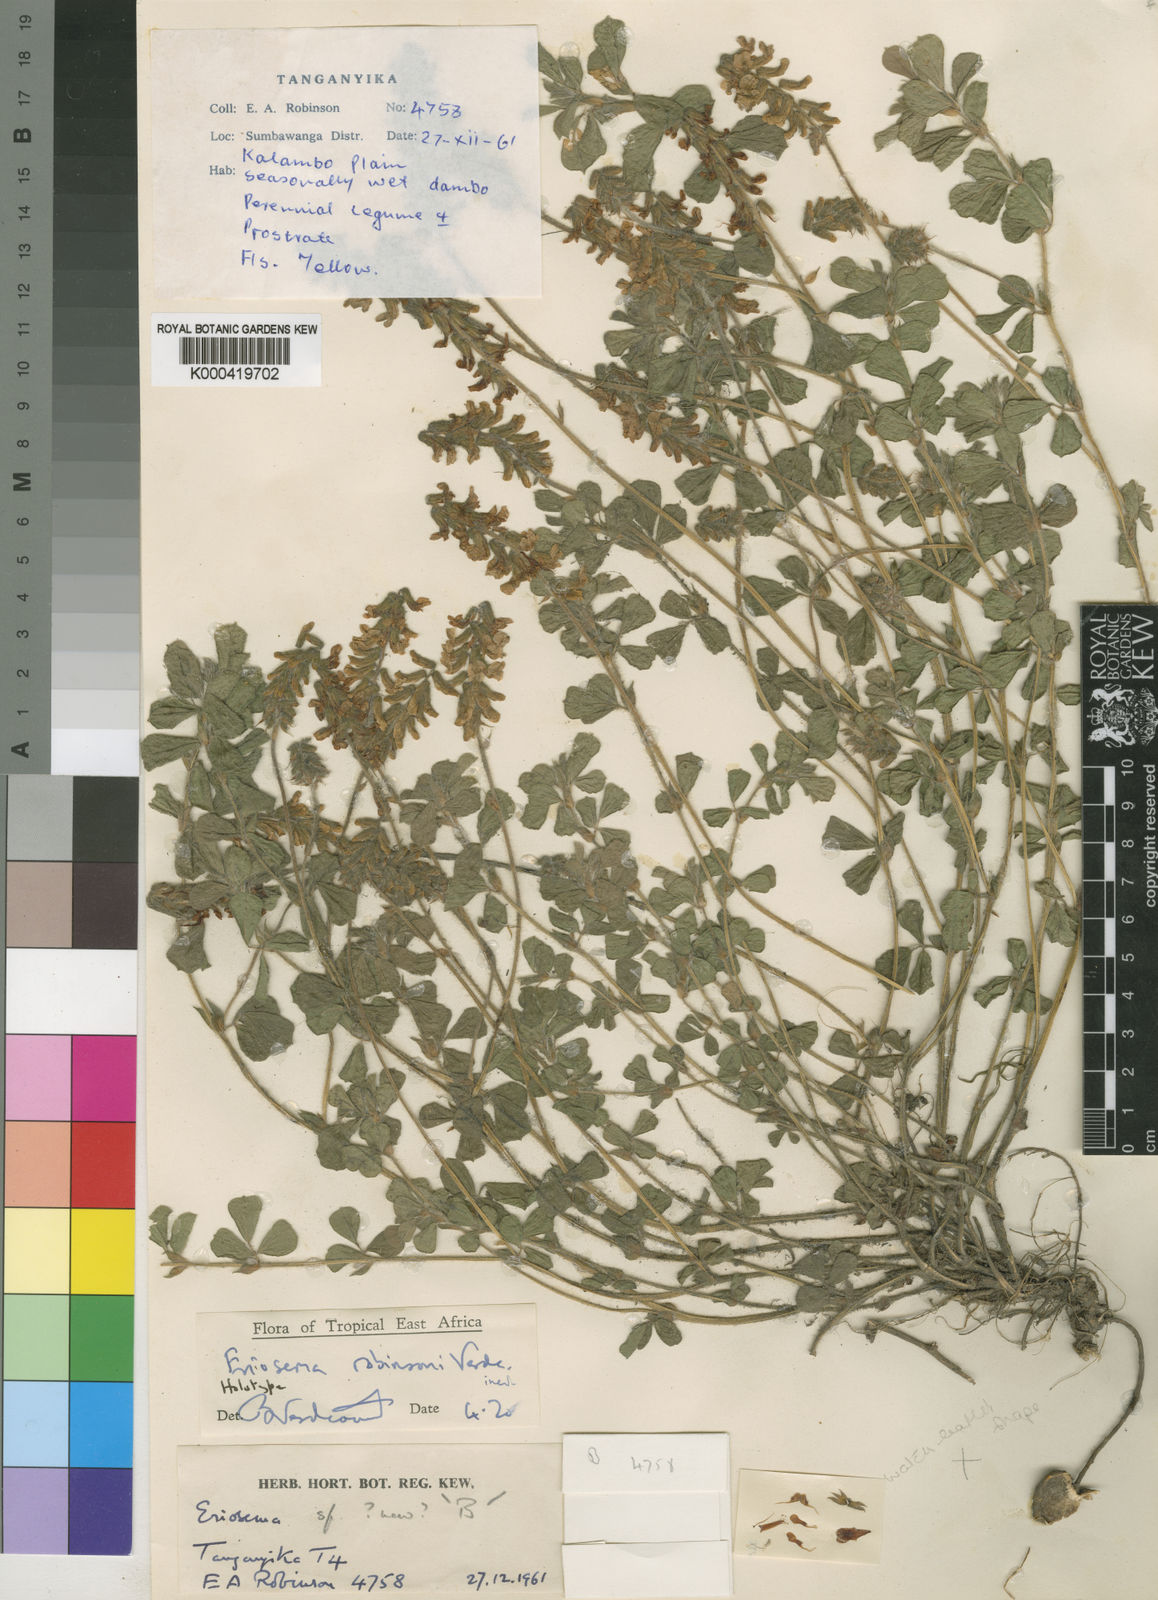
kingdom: Plantae
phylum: Tracheophyta
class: Magnoliopsida
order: Fabales
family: Fabaceae
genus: Eriosema
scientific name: Eriosema robinsonii
